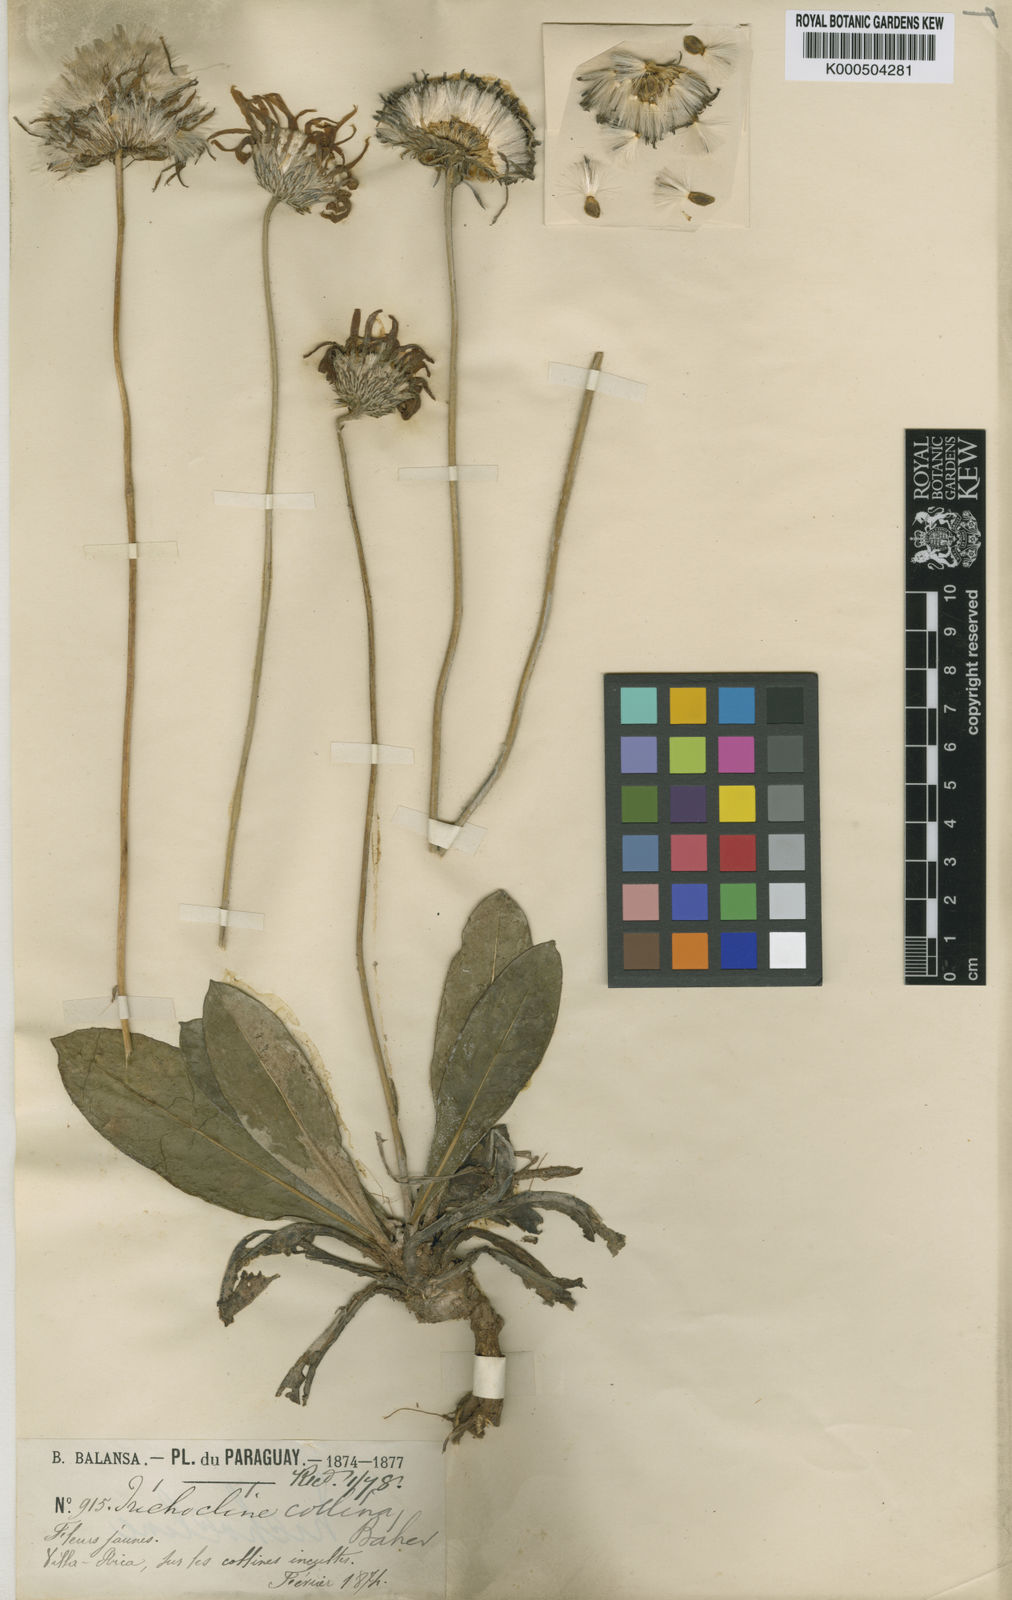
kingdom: Plantae
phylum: Tracheophyta
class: Magnoliopsida
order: Asterales
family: Asteraceae
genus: Trichocline
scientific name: Trichocline speciosa
